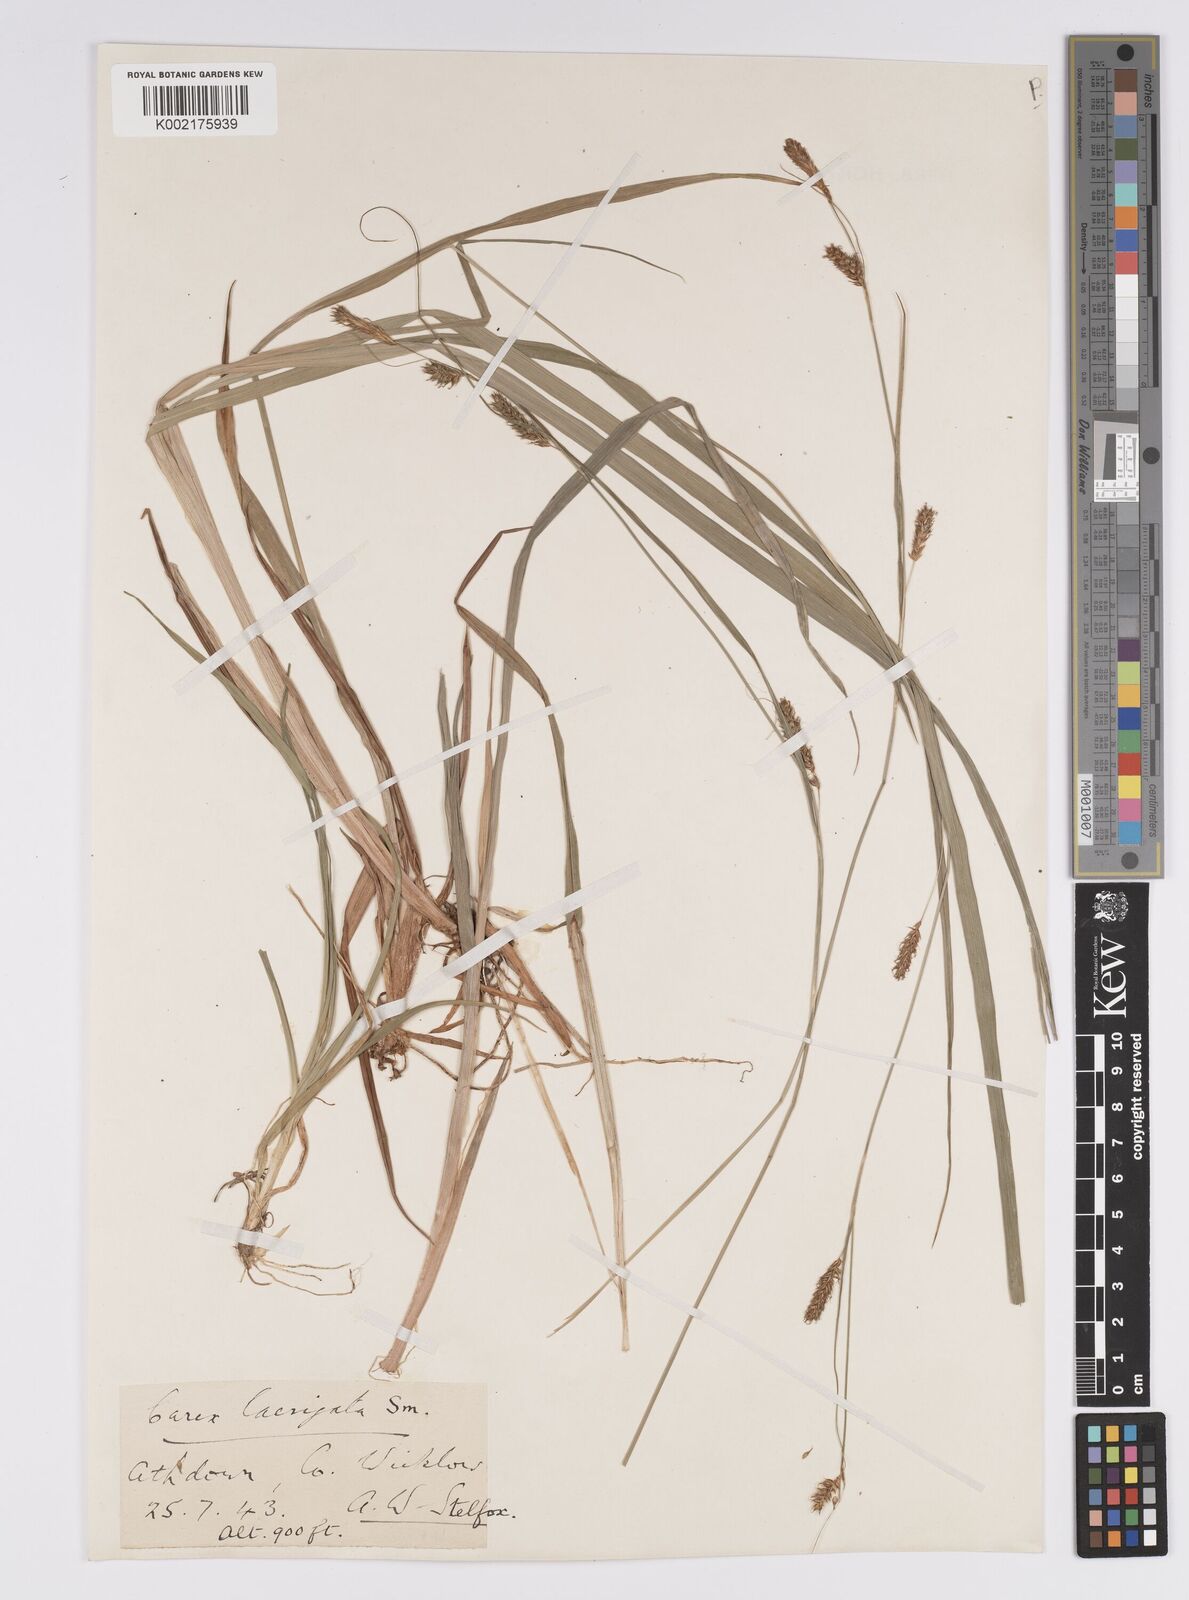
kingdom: Plantae
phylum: Tracheophyta
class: Liliopsida
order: Poales
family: Cyperaceae
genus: Carex
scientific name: Carex laevigata
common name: Smooth-stalked sedge
